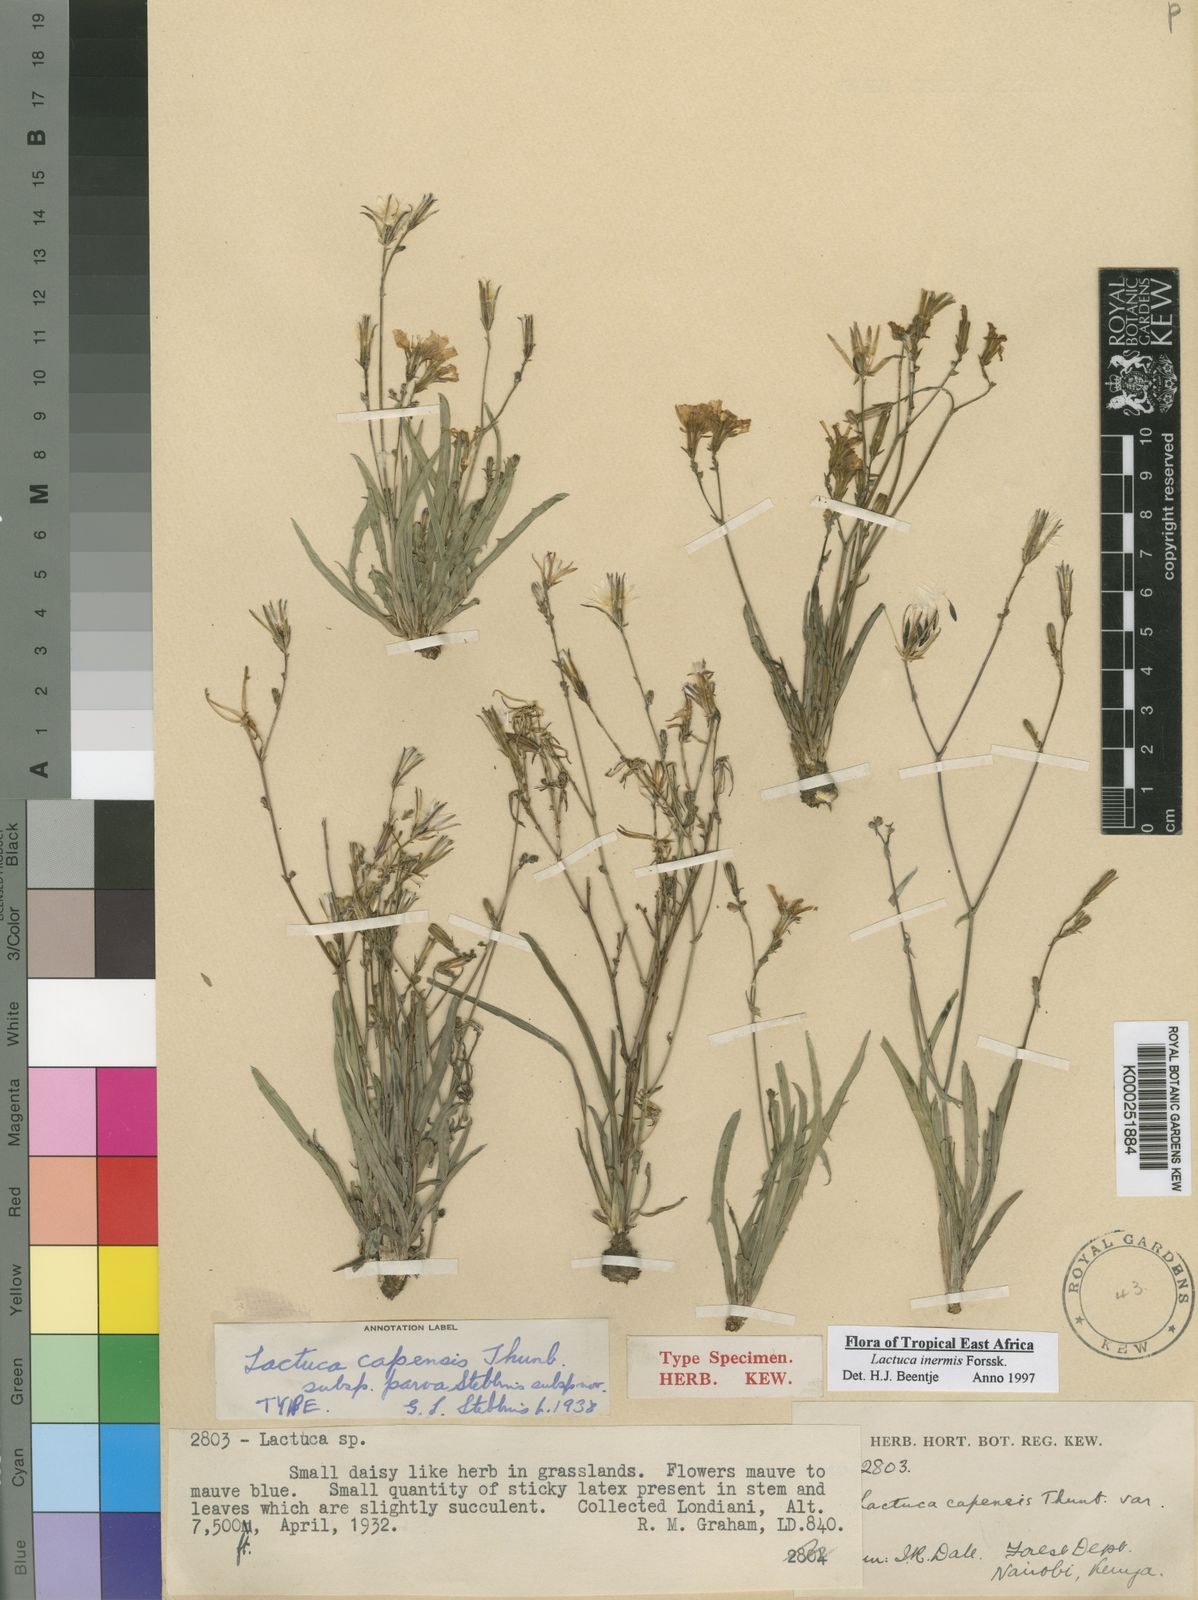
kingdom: Plantae
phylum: Tracheophyta
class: Magnoliopsida
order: Asterales
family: Asteraceae
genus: Lactuca
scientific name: Lactuca inermis
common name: Wild lettuce
